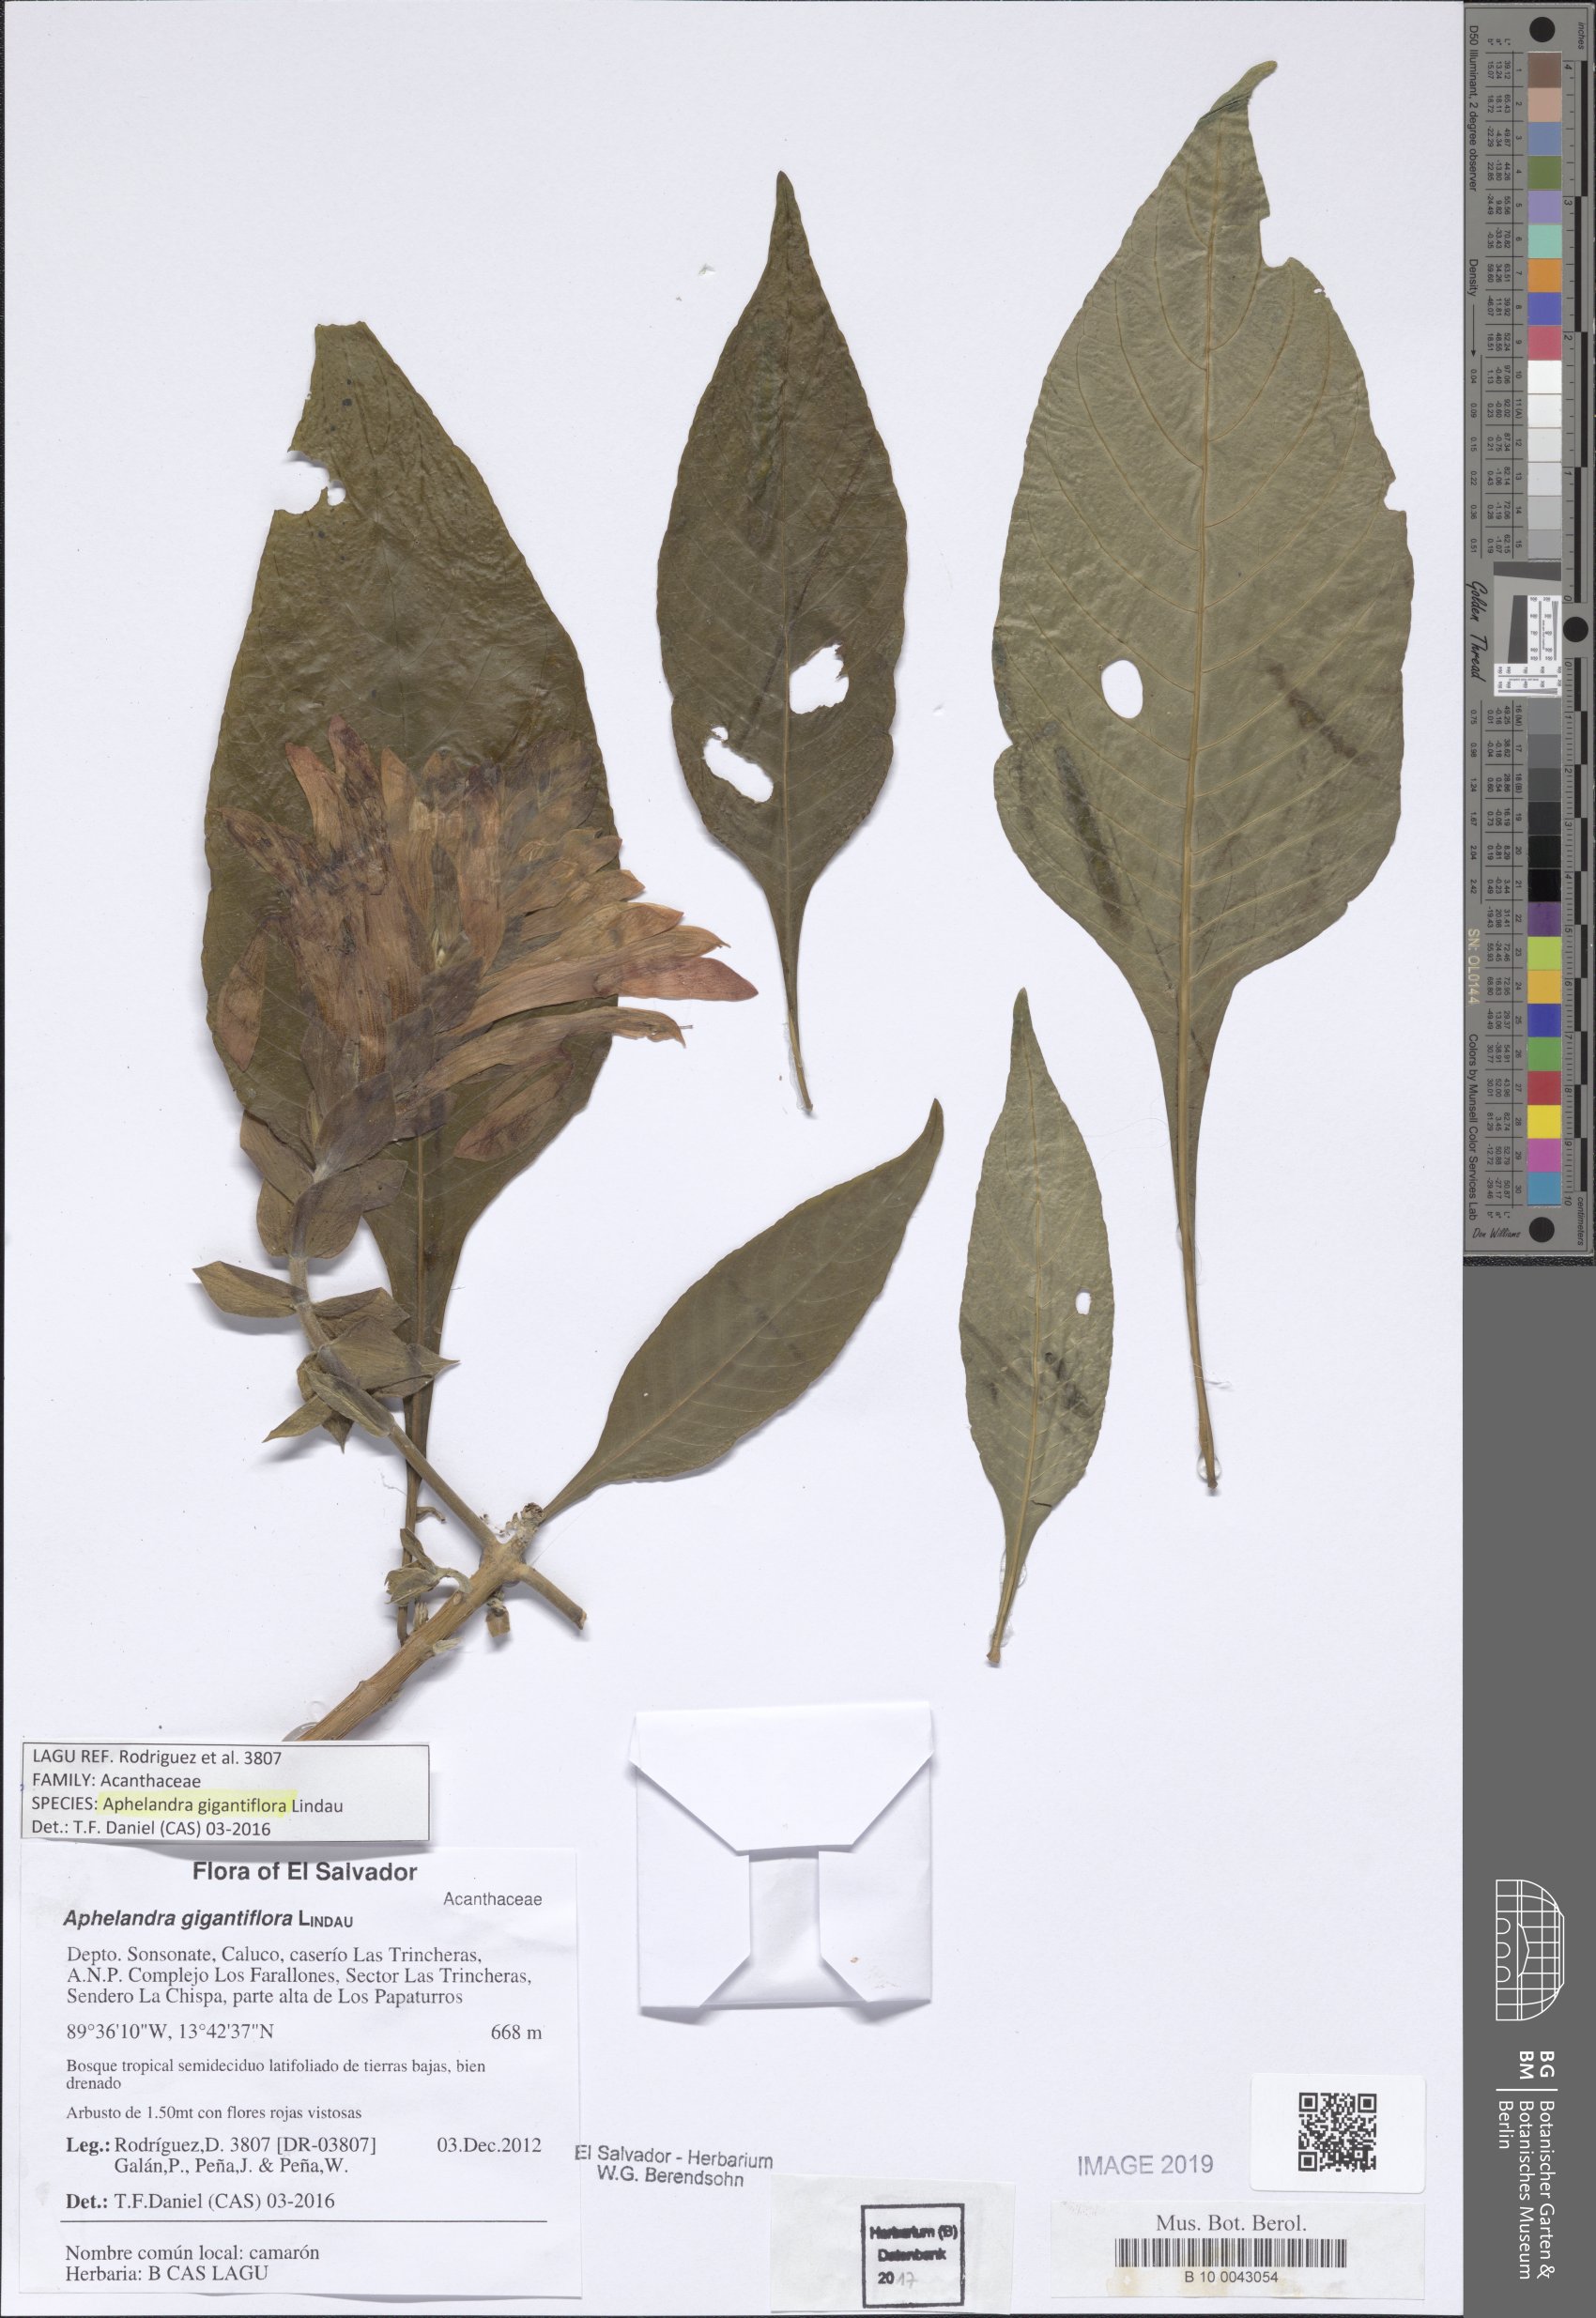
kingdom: Plantae
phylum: Tracheophyta
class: Magnoliopsida
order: Lamiales
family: Acanthaceae
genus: Aphelandra
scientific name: Aphelandra gigantiflora
